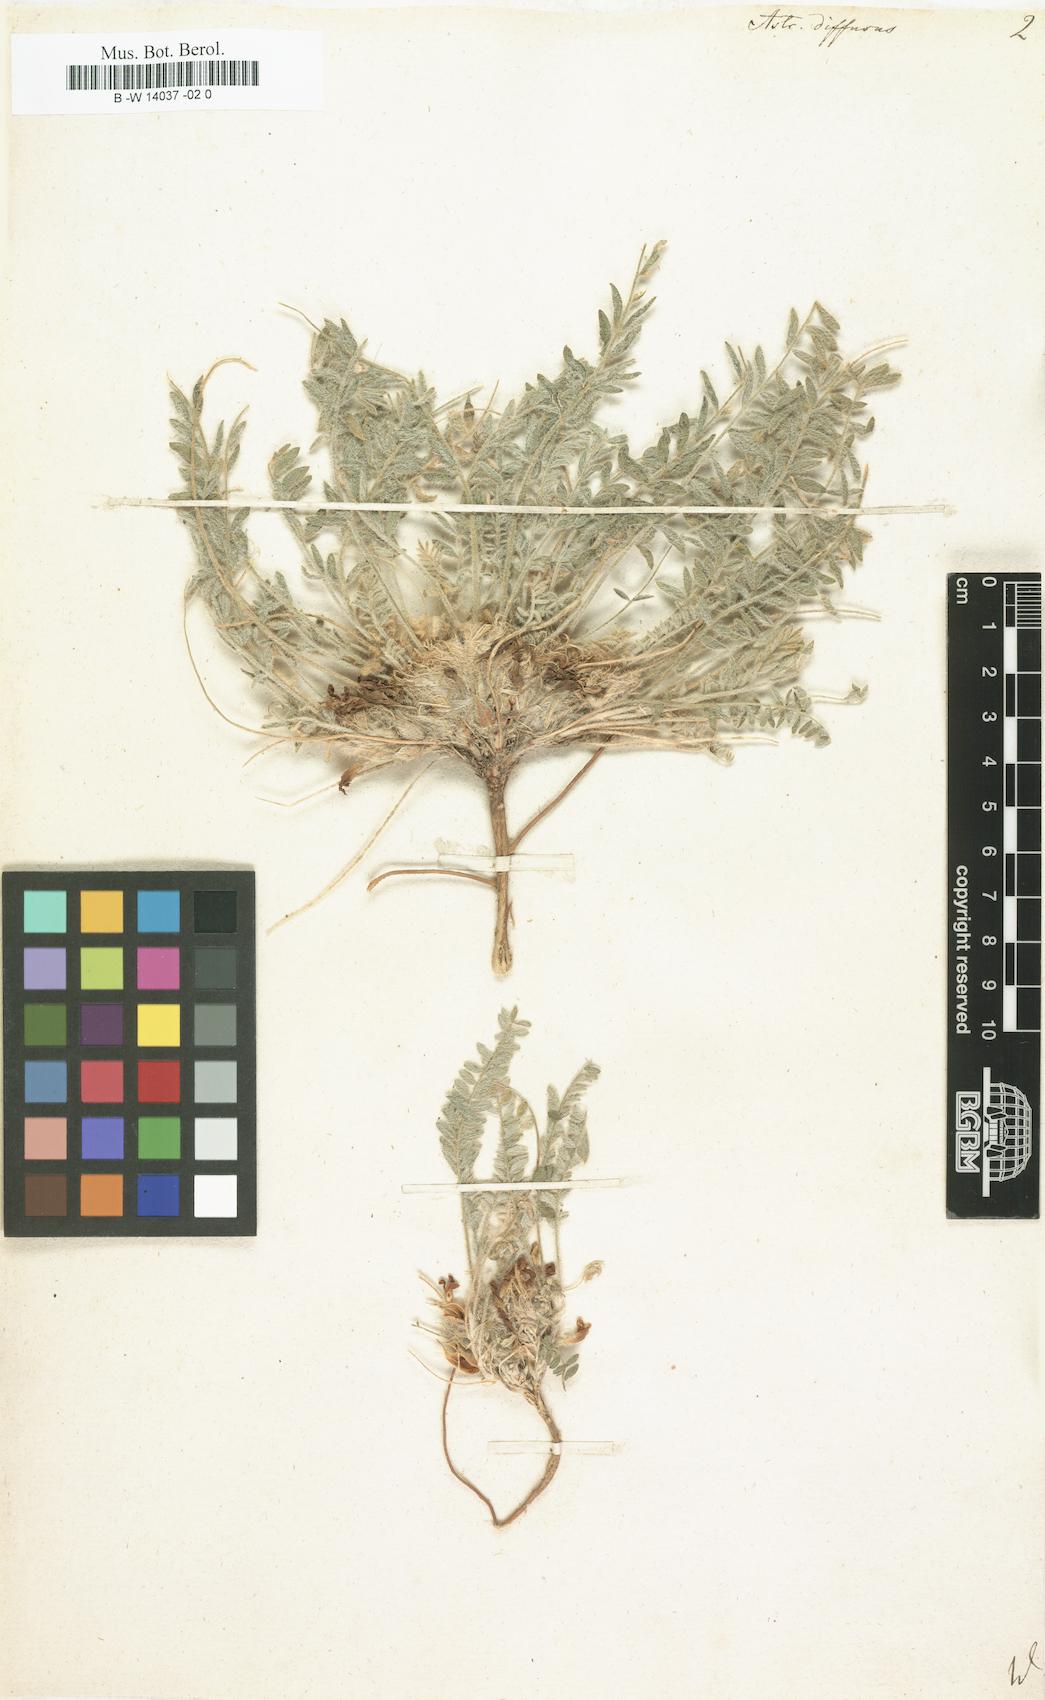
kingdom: Plantae
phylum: Tracheophyta
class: Magnoliopsida
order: Fabales
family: Fabaceae
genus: Astragalus
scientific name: Astragalus dolichophyllus
